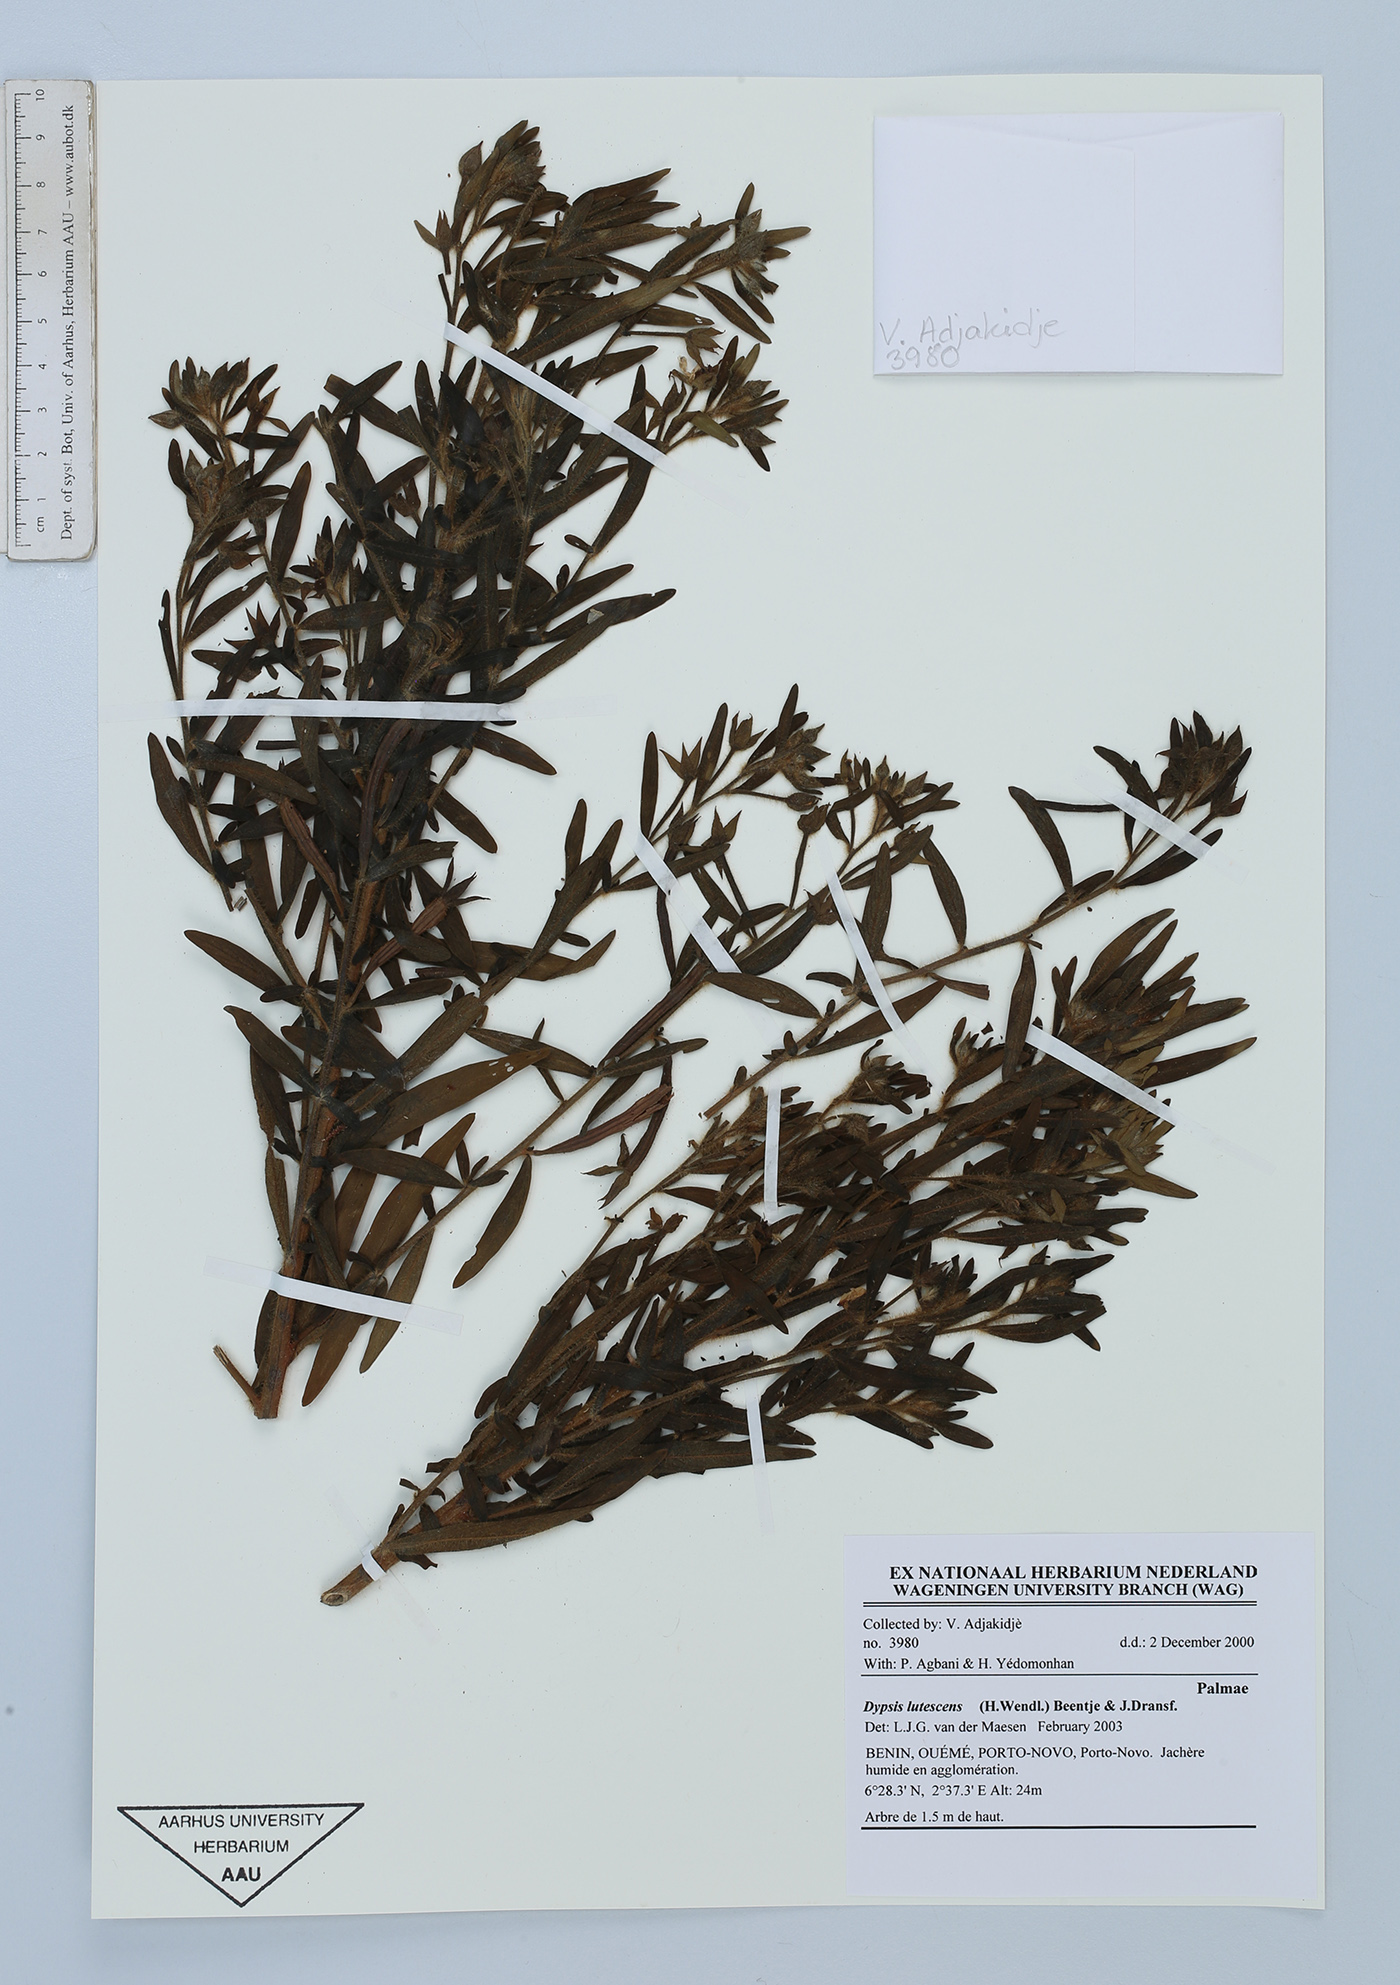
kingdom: Plantae
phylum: Tracheophyta
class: Liliopsida
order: Arecales
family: Arecaceae
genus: Dypsis
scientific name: Dypsis lutescens
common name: Yellow butterfly palm
